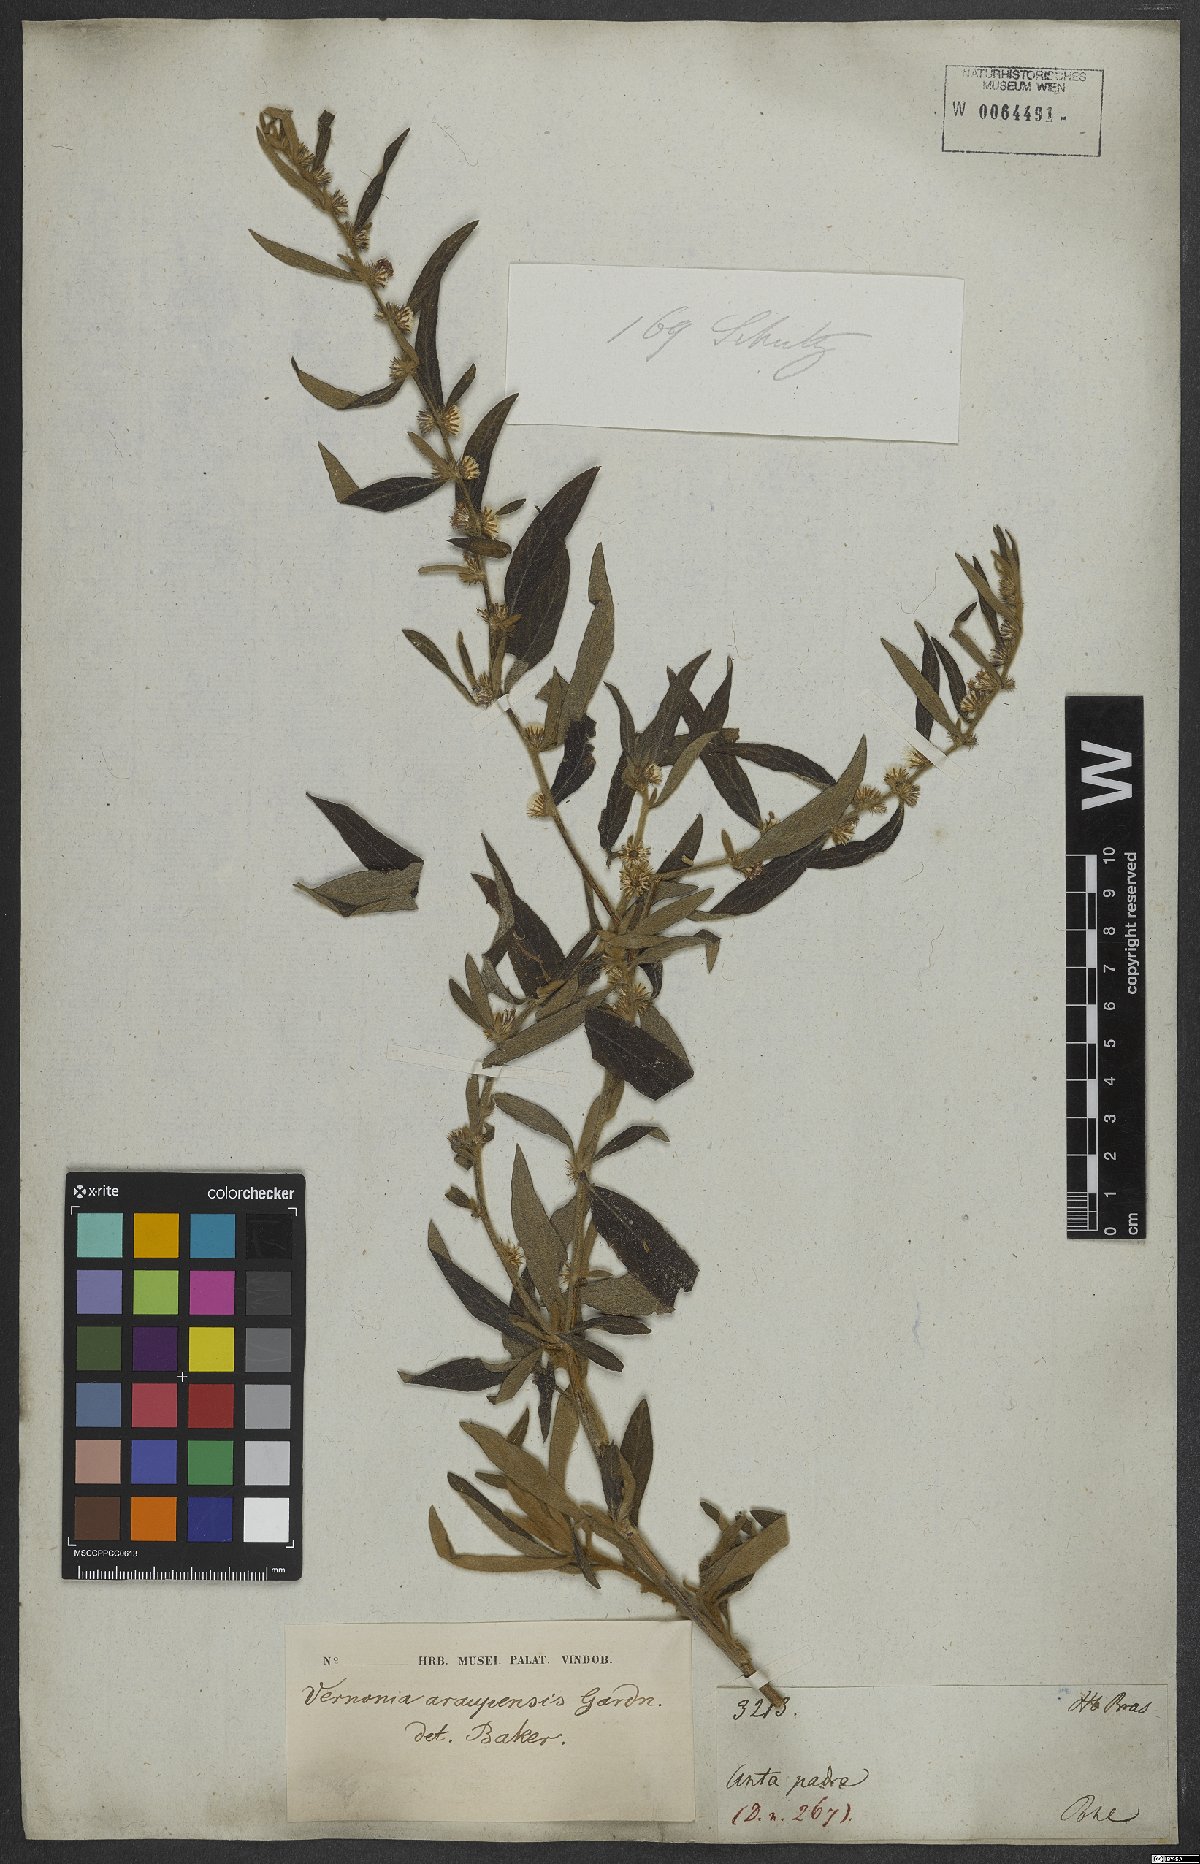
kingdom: Plantae
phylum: Tracheophyta
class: Magnoliopsida
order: Asterales
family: Asteraceae
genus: Lepidaploa
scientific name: Lepidaploa araripensis
